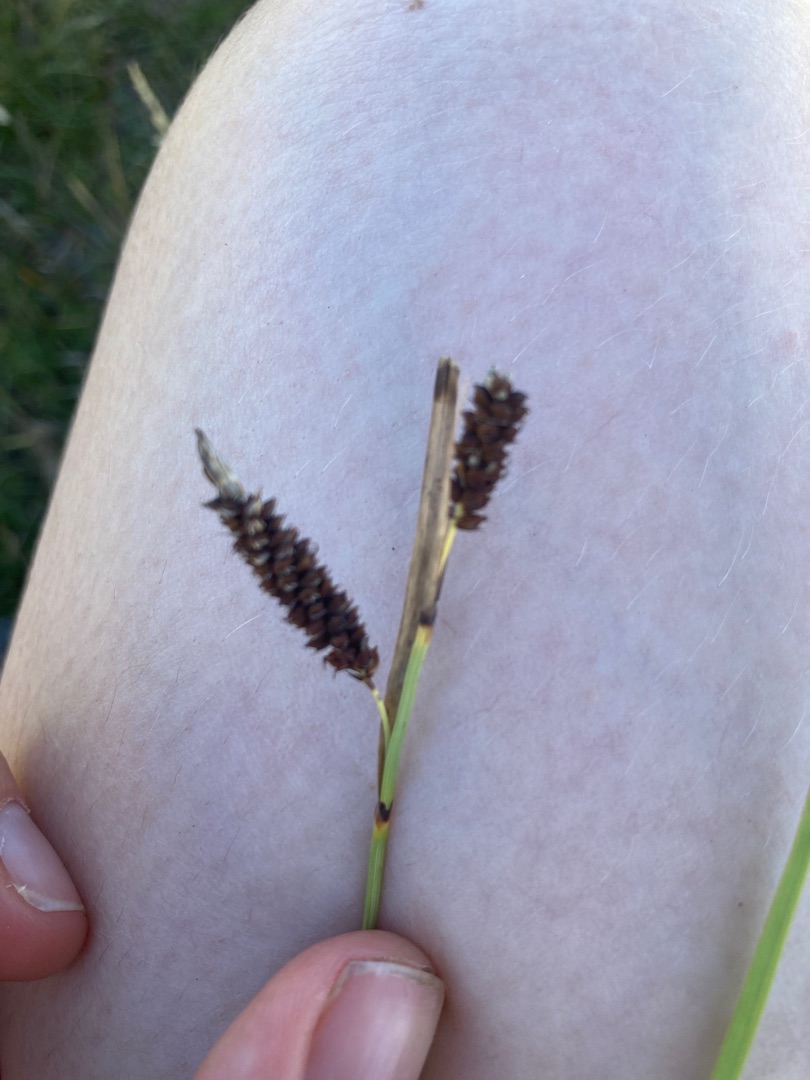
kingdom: Plantae
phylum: Tracheophyta
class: Liliopsida
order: Poales
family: Cyperaceae
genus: Carex
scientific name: Carex flacca
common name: Blågrøn star
